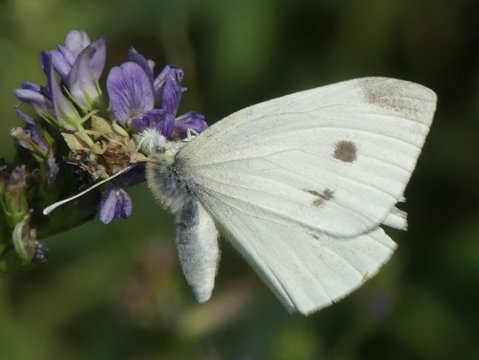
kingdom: Animalia
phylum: Arthropoda
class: Insecta
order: Lepidoptera
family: Pieridae
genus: Pieris
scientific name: Pieris rapae
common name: Cabbage White
